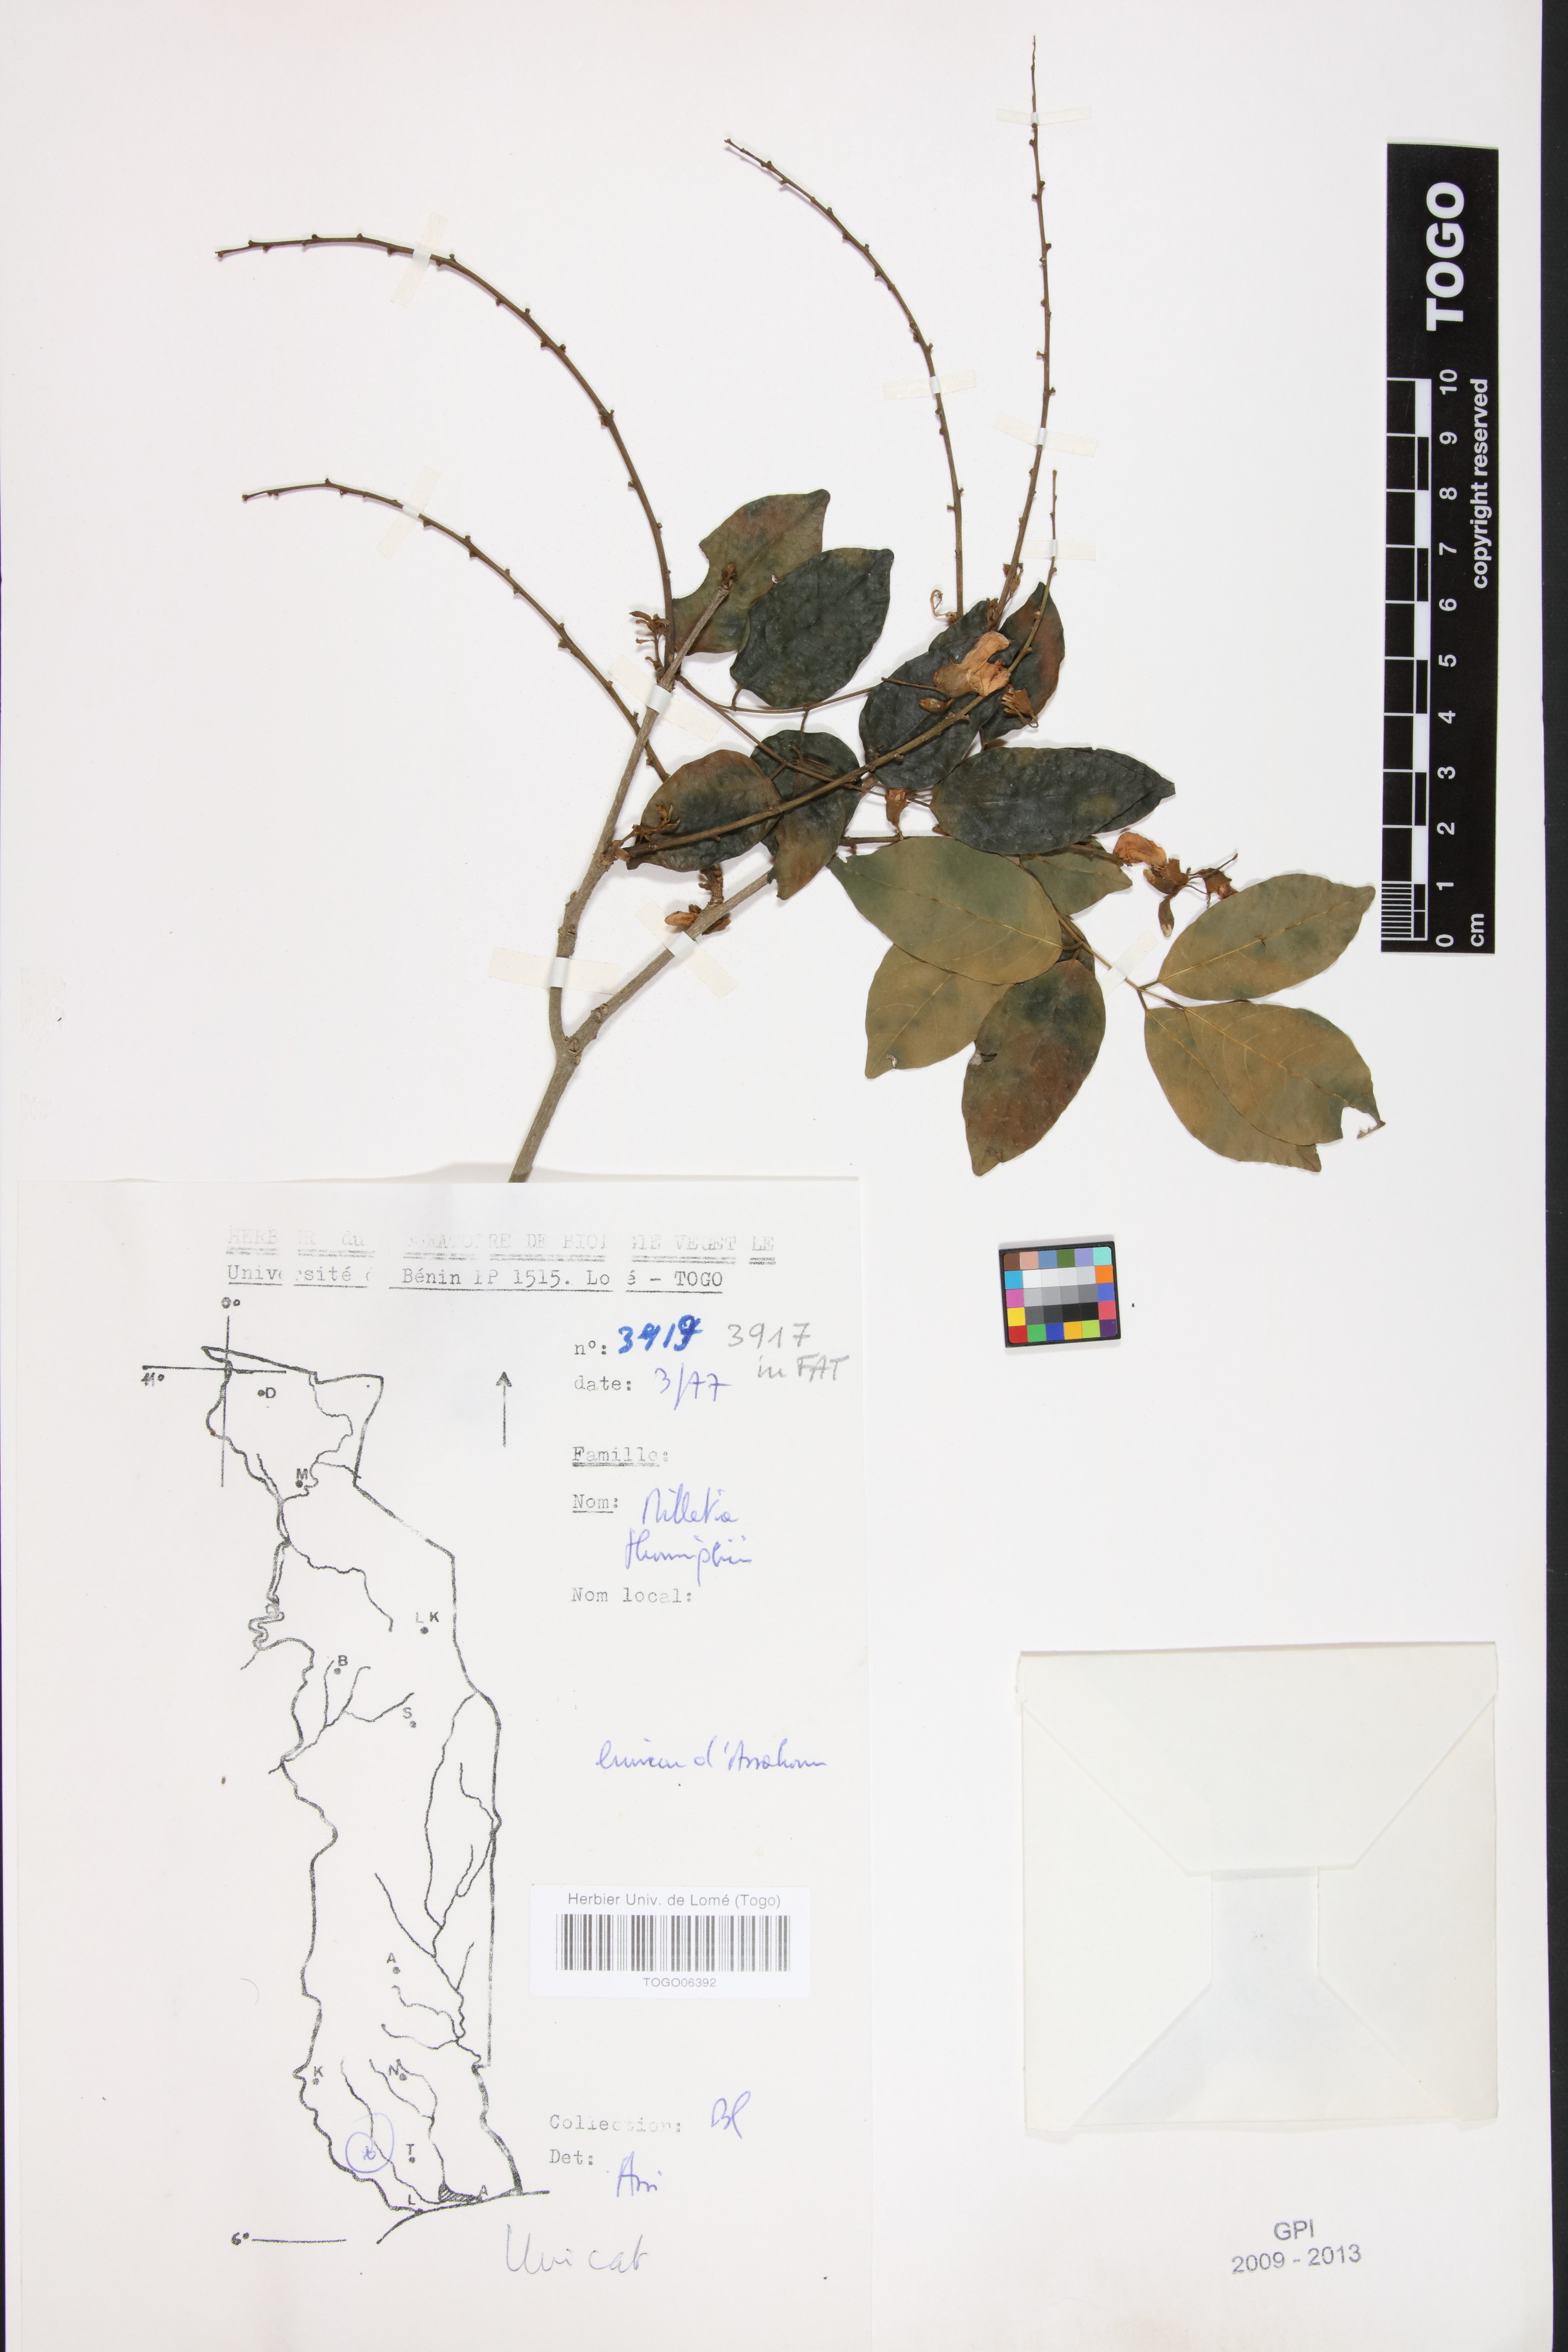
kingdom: Plantae
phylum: Tracheophyta
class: Magnoliopsida
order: Fabales
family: Fabaceae
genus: Millettia
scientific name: Millettia thonningii
